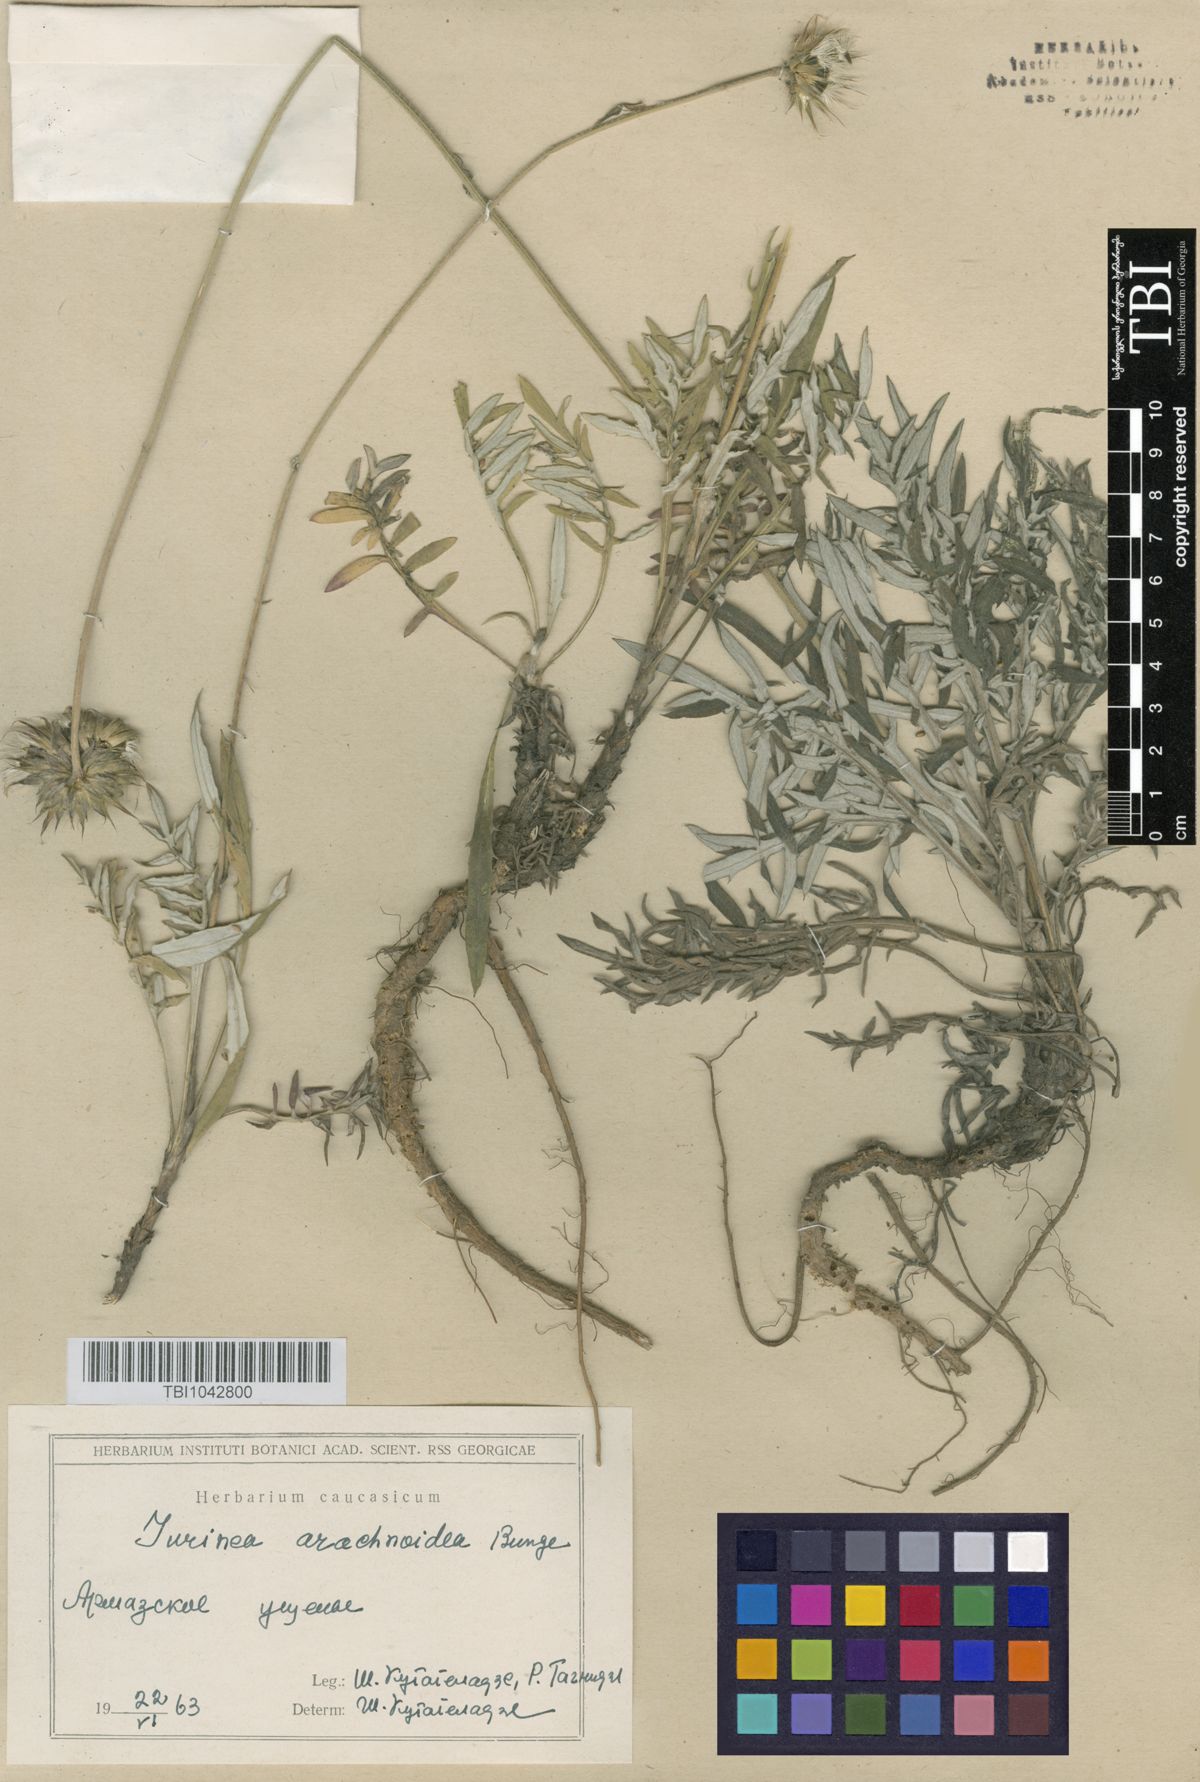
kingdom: Plantae
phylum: Tracheophyta
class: Magnoliopsida
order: Asterales
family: Asteraceae
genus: Jurinea
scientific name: Jurinea blanda
